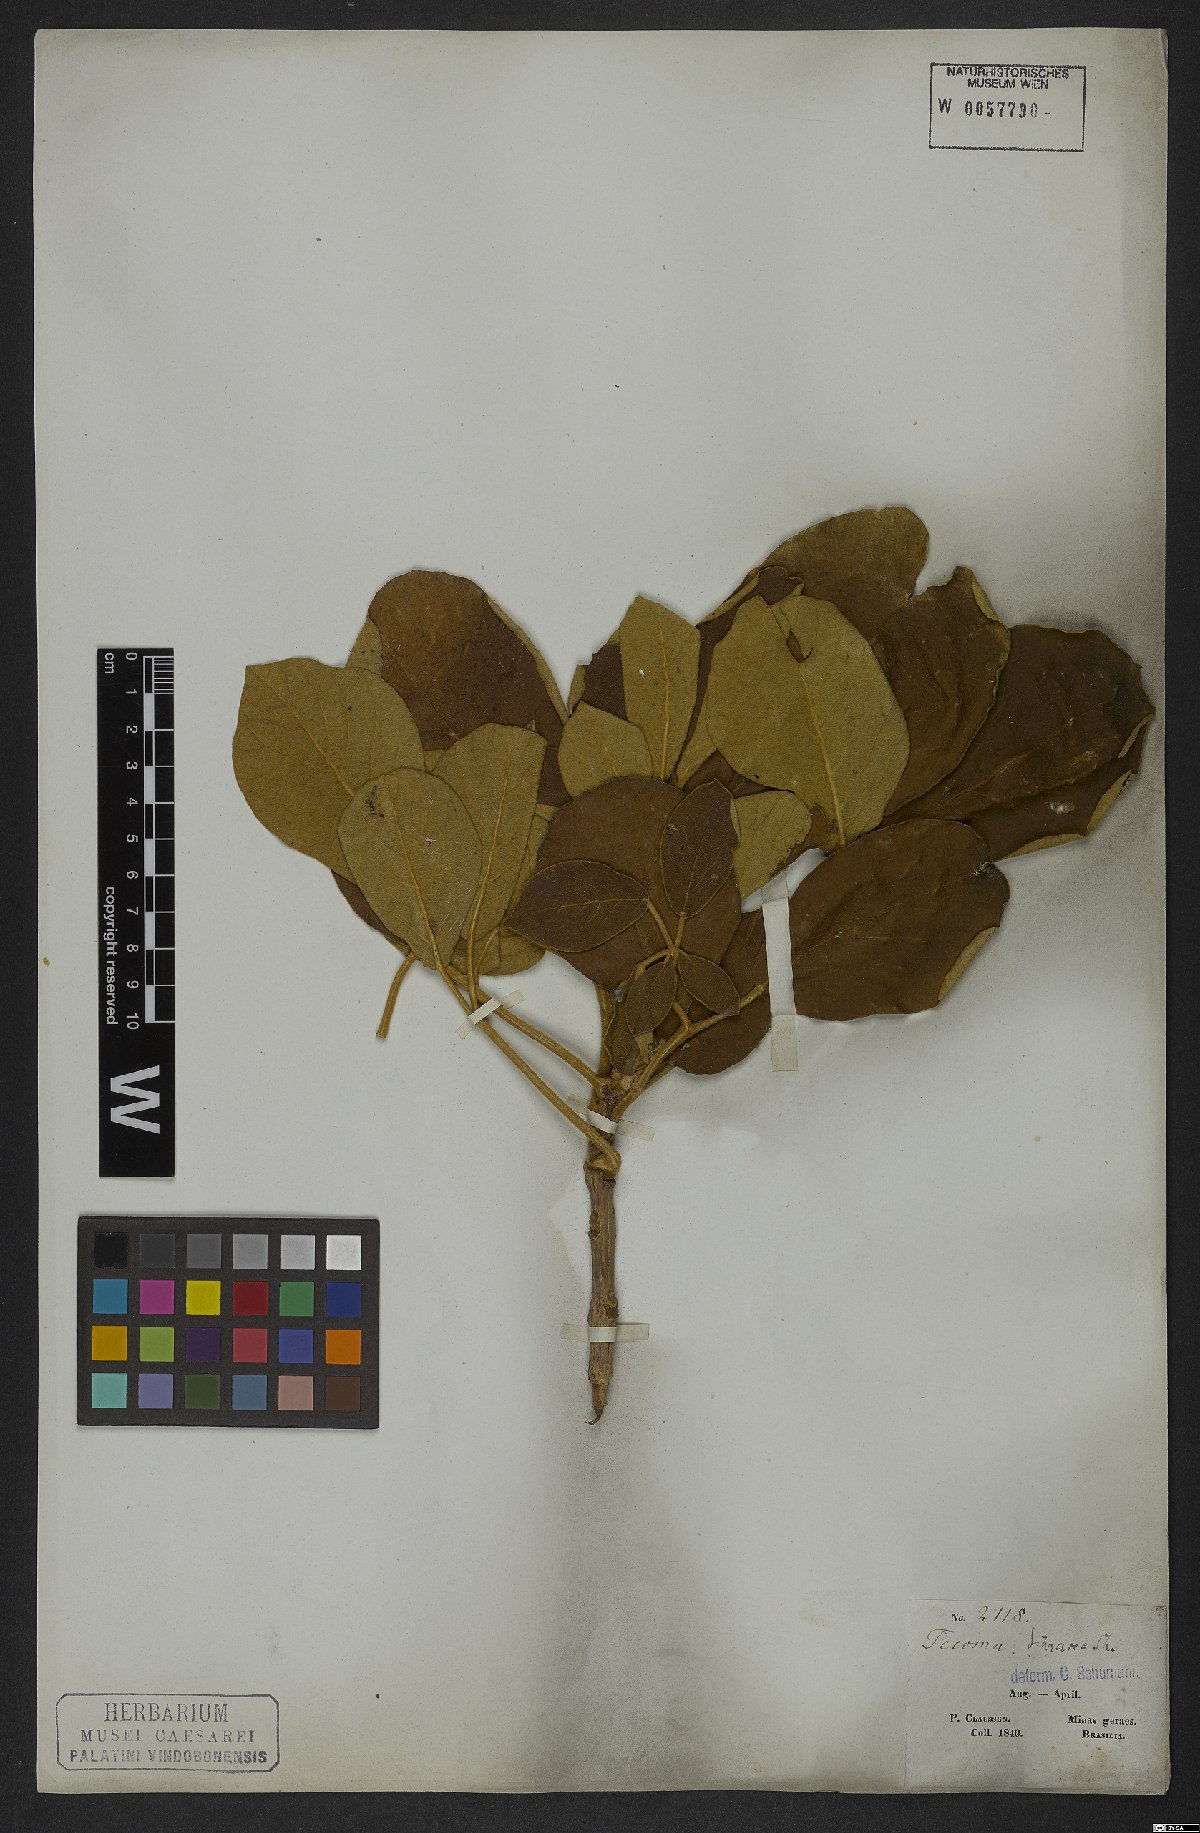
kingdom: Plantae
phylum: Tracheophyta
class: Magnoliopsida
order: Lamiales
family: Bignoniaceae
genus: Handroanthus
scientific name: Handroanthus ochraceus
